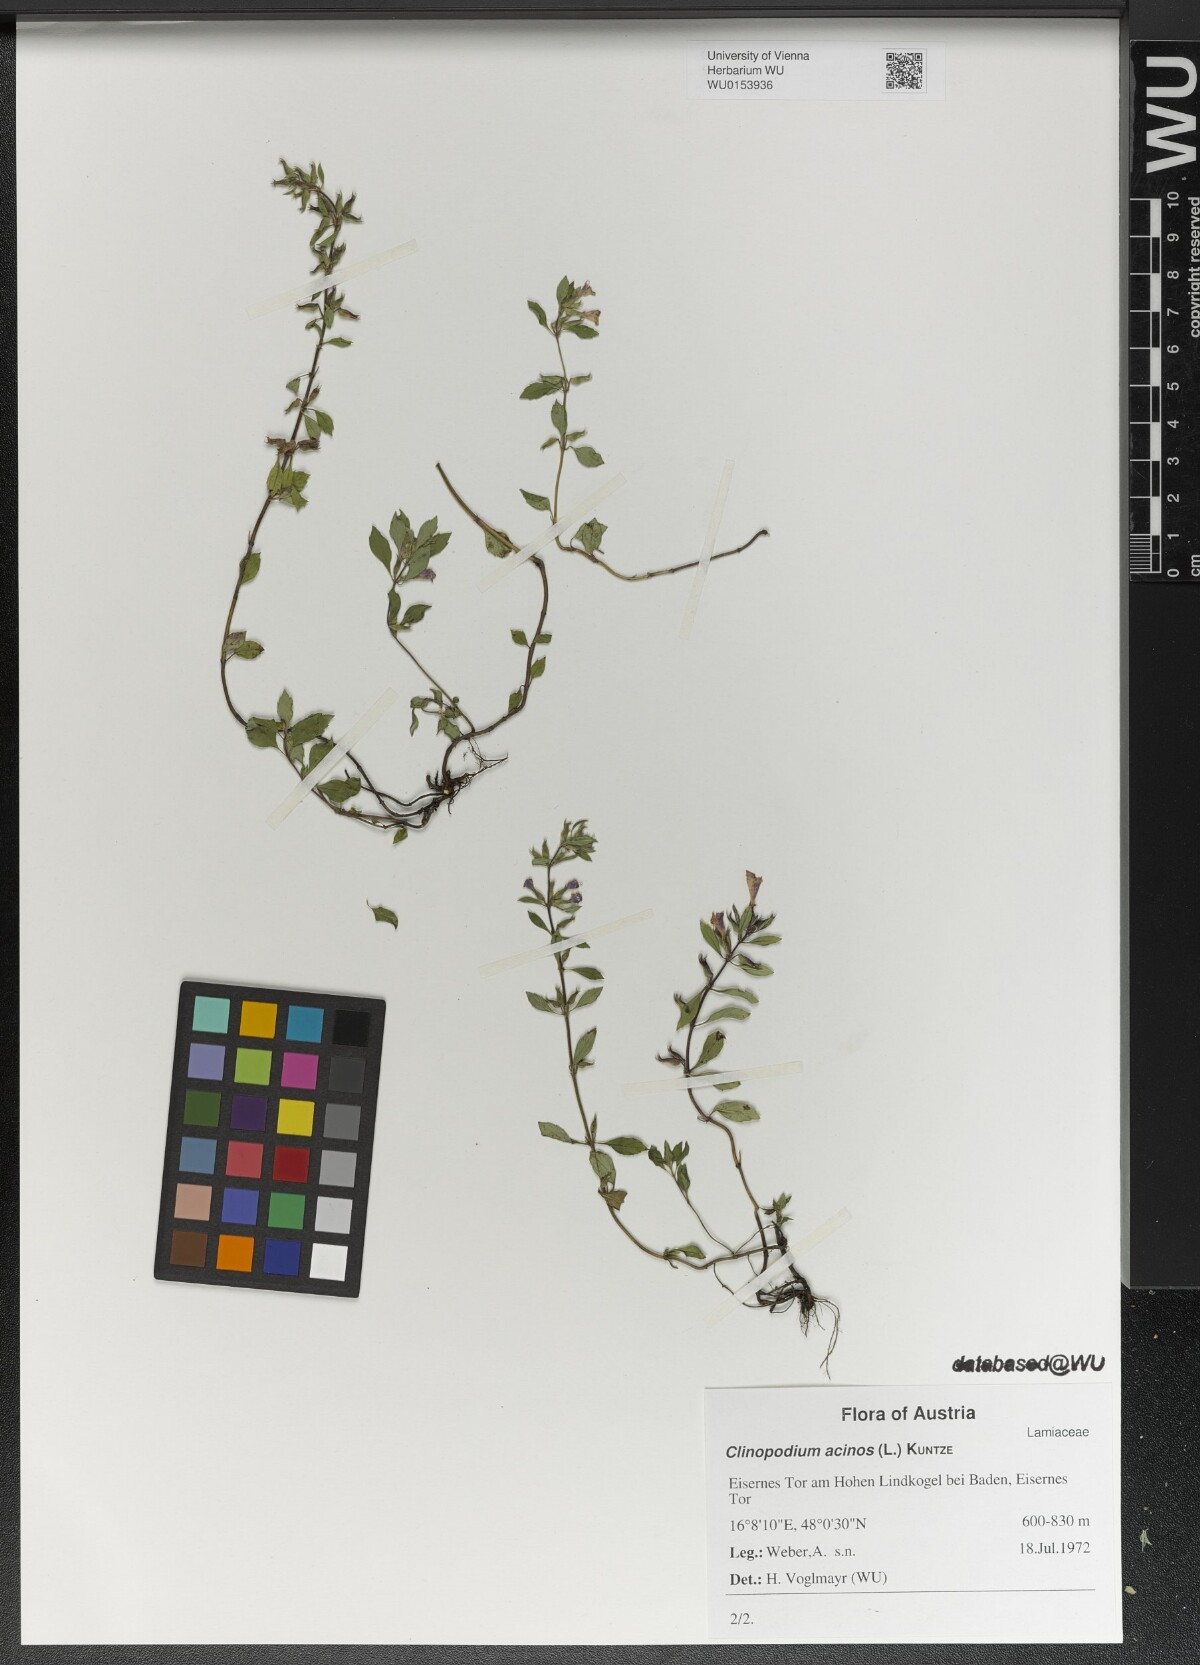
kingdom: Plantae
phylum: Tracheophyta
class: Magnoliopsida
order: Lamiales
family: Lamiaceae
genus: Clinopodium
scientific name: Clinopodium acinos
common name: Basil thyme
